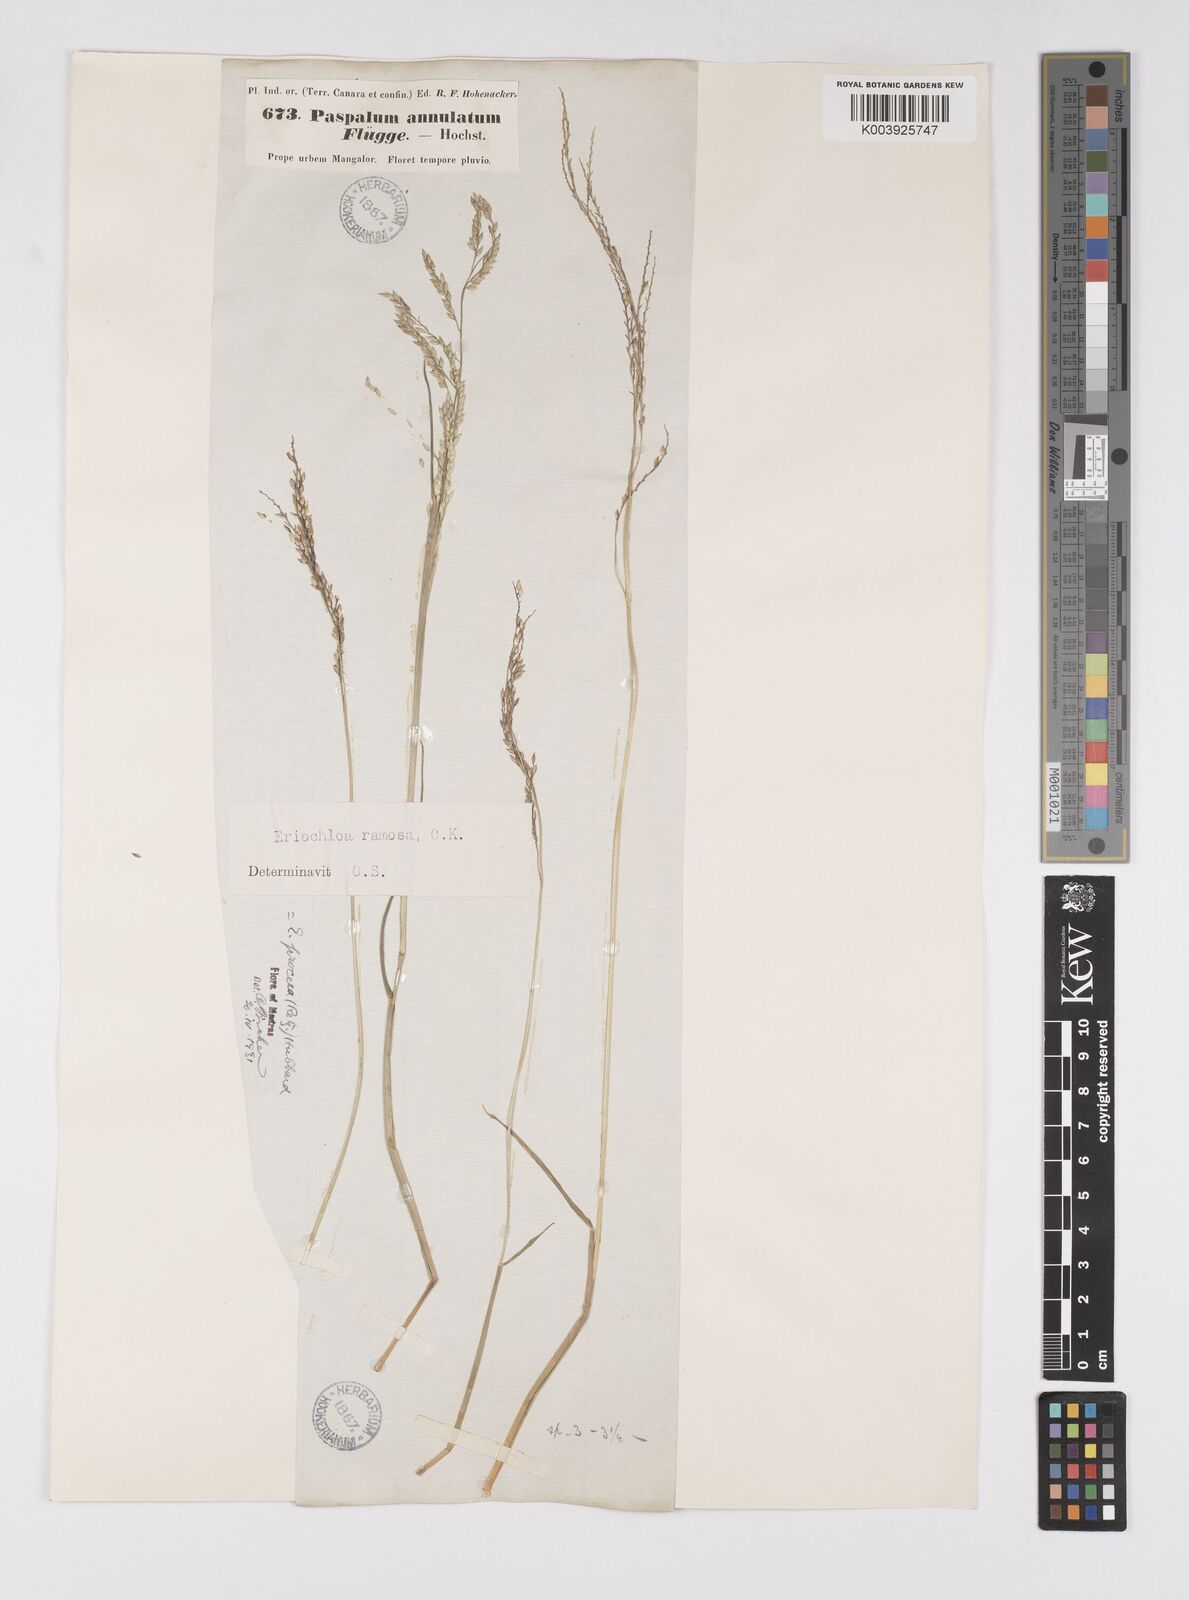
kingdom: Plantae
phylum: Tracheophyta
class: Liliopsida
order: Poales
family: Poaceae
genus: Eriochloa
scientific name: Eriochloa procera
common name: Spring grass
